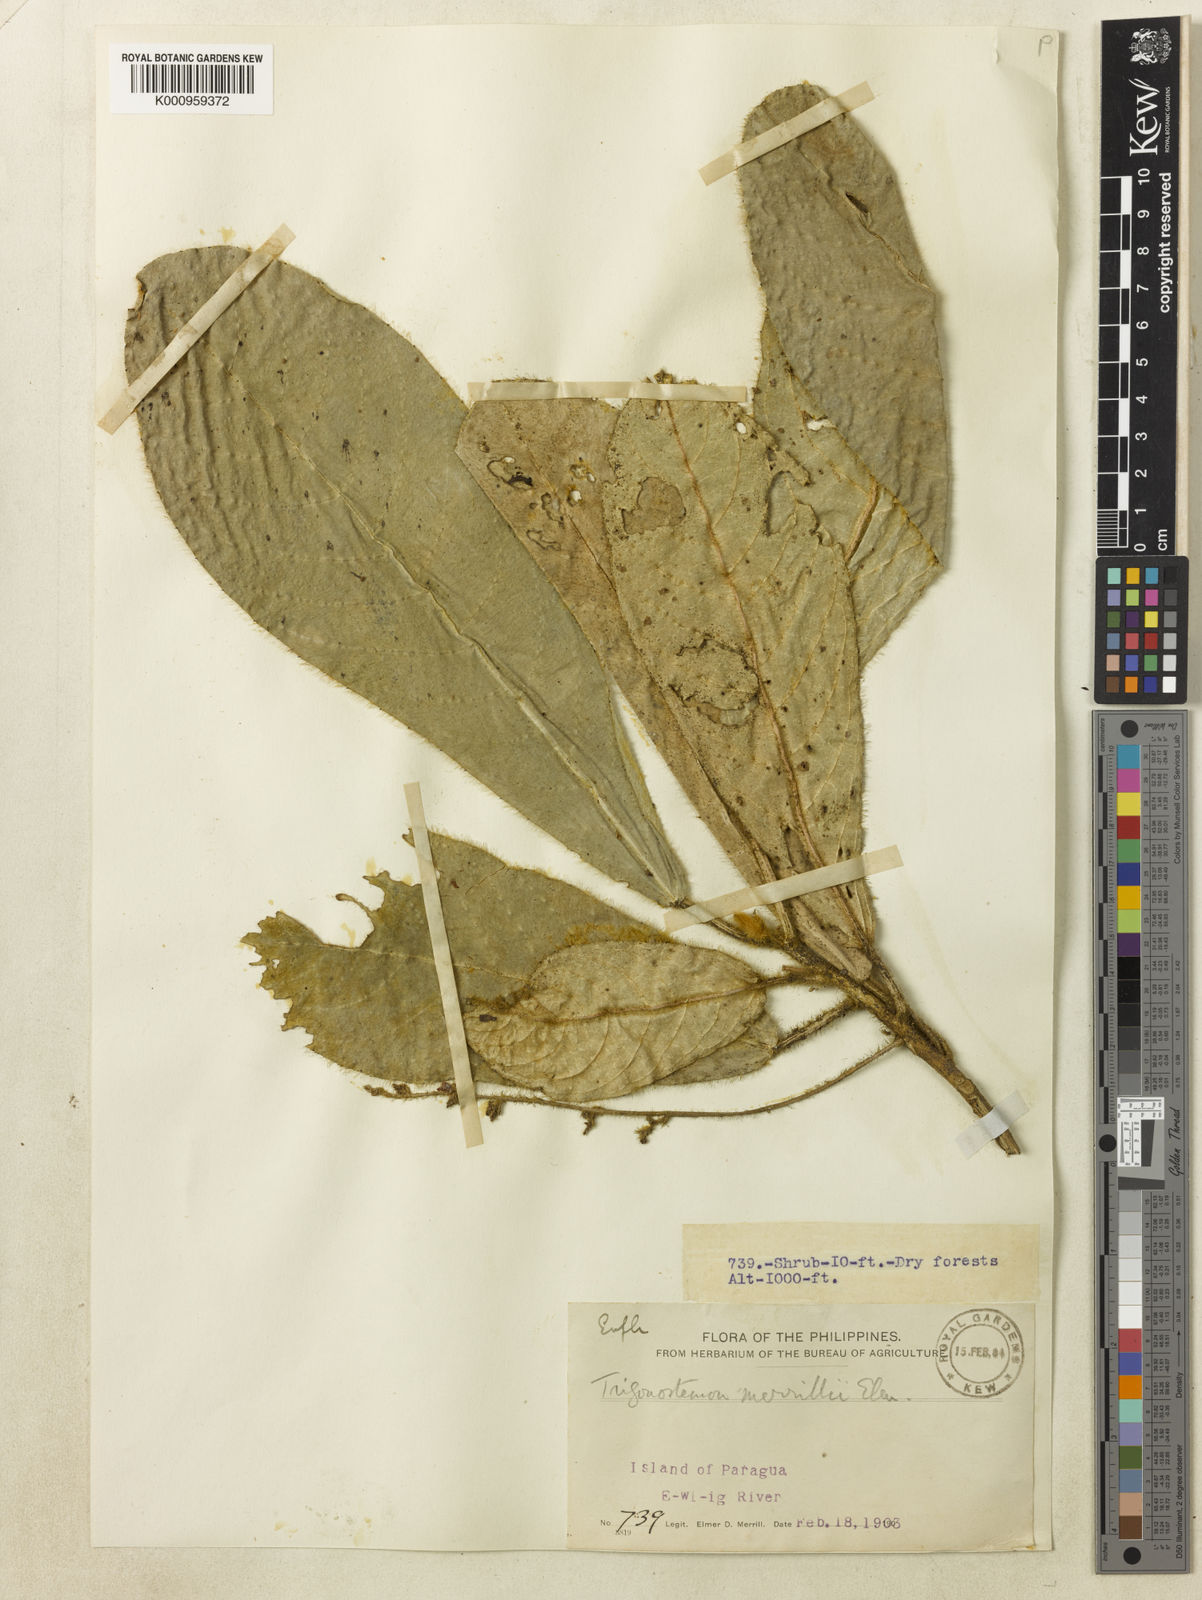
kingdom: Plantae
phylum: Tracheophyta
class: Magnoliopsida
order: Malpighiales
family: Euphorbiaceae
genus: Trigonostemon
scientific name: Trigonostemon merrillii
